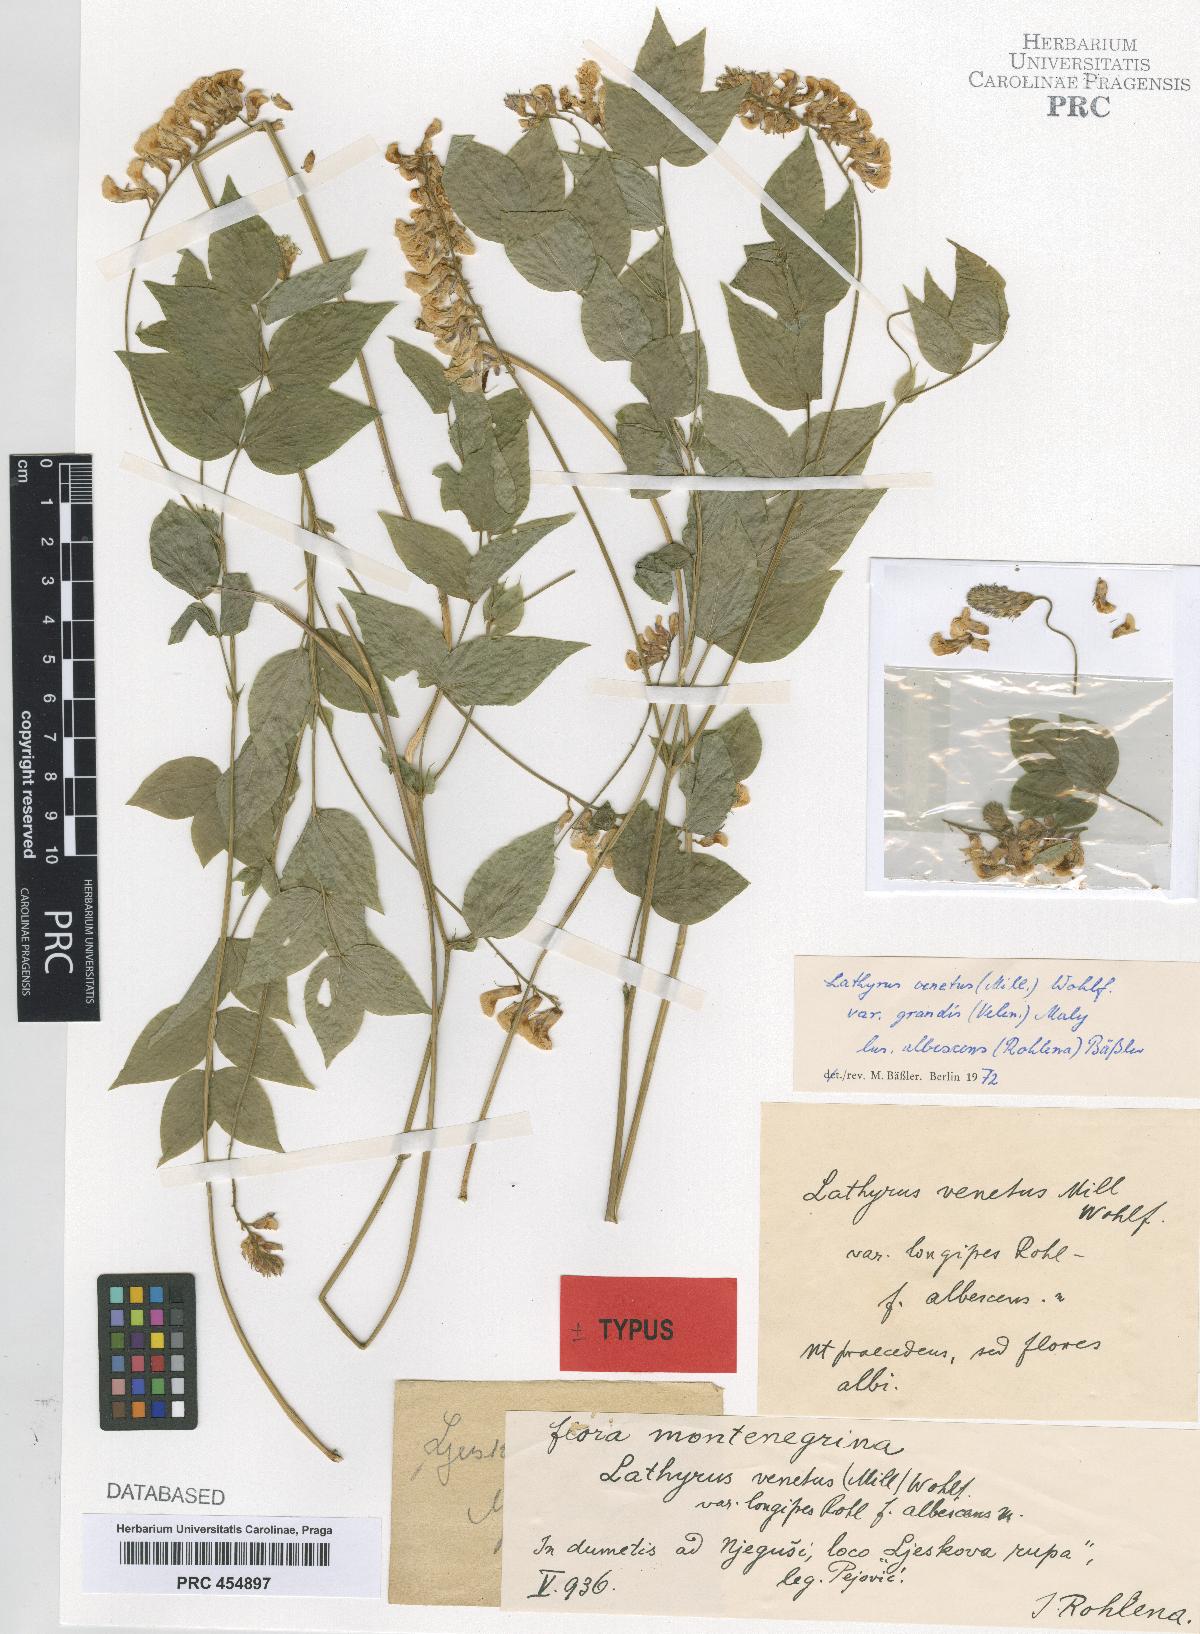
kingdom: Plantae
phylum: Tracheophyta
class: Magnoliopsida
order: Fabales
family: Fabaceae
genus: Lathyrus
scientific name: Lathyrus venetus
